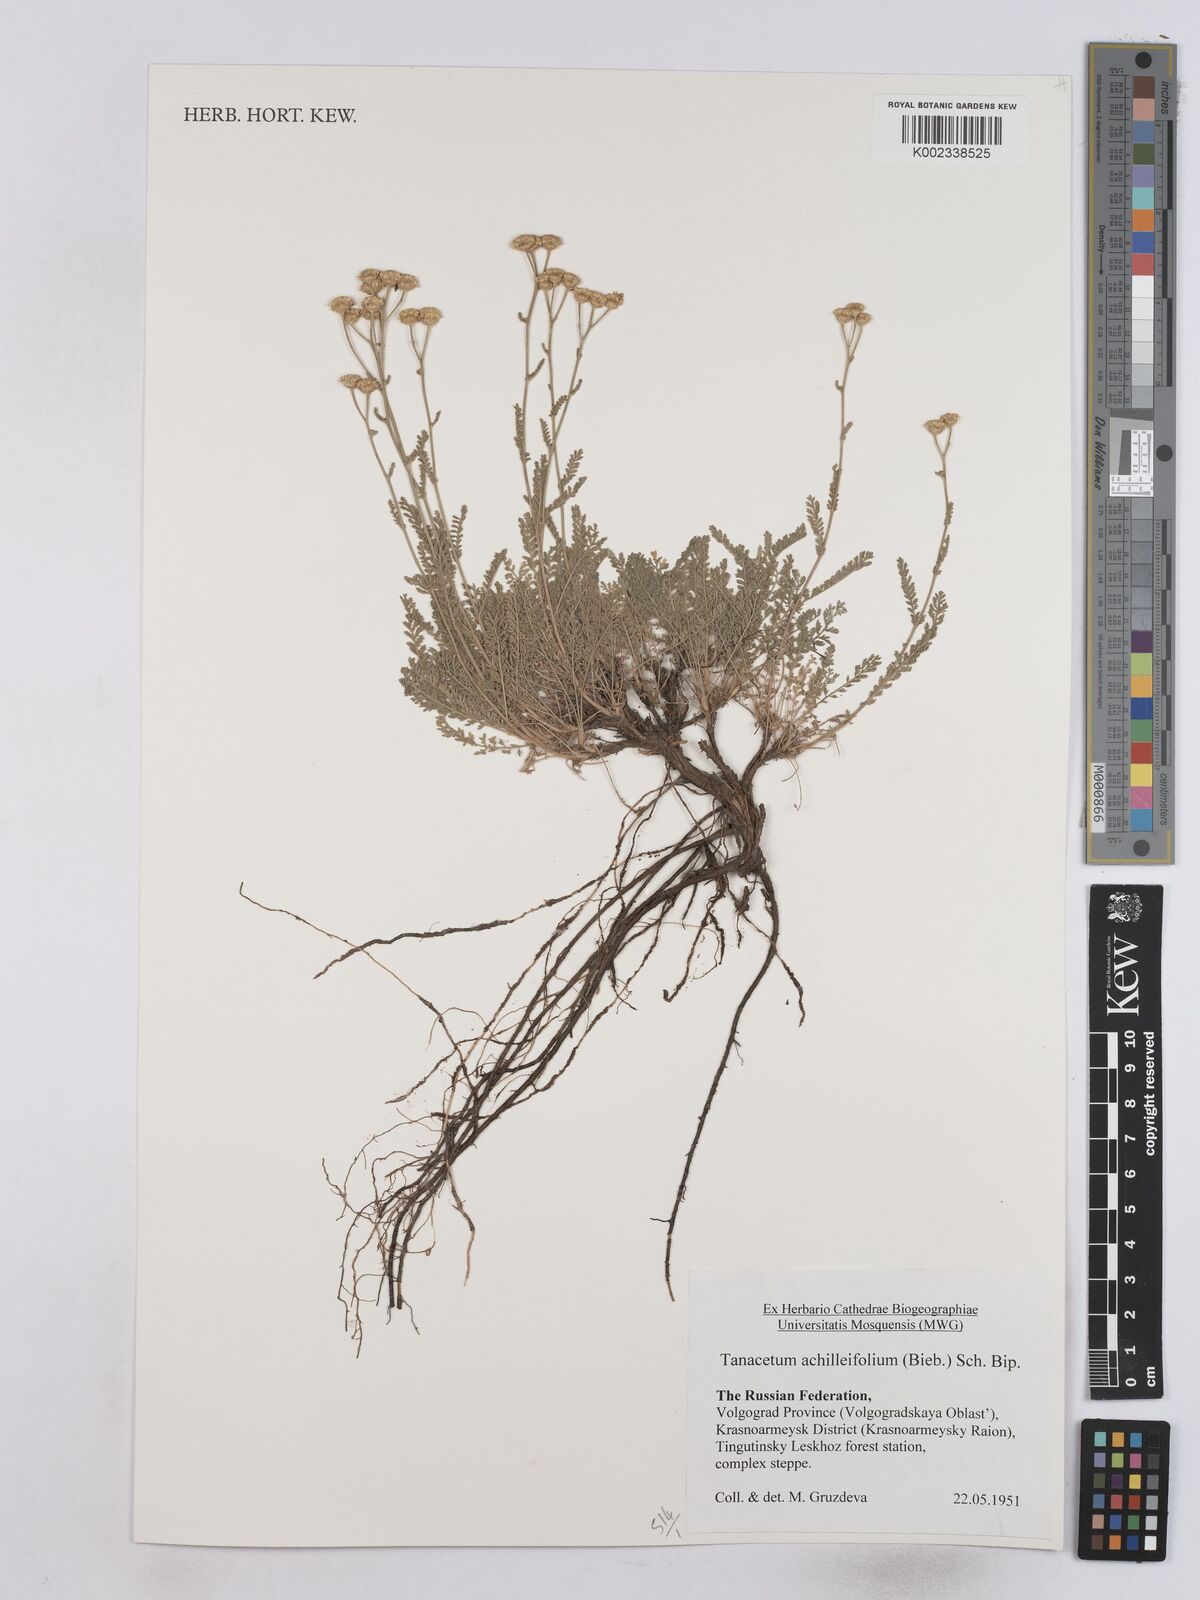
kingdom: Plantae
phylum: Tracheophyta
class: Magnoliopsida
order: Asterales
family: Asteraceae
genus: Tanacetum
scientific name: Tanacetum achilleifolium
